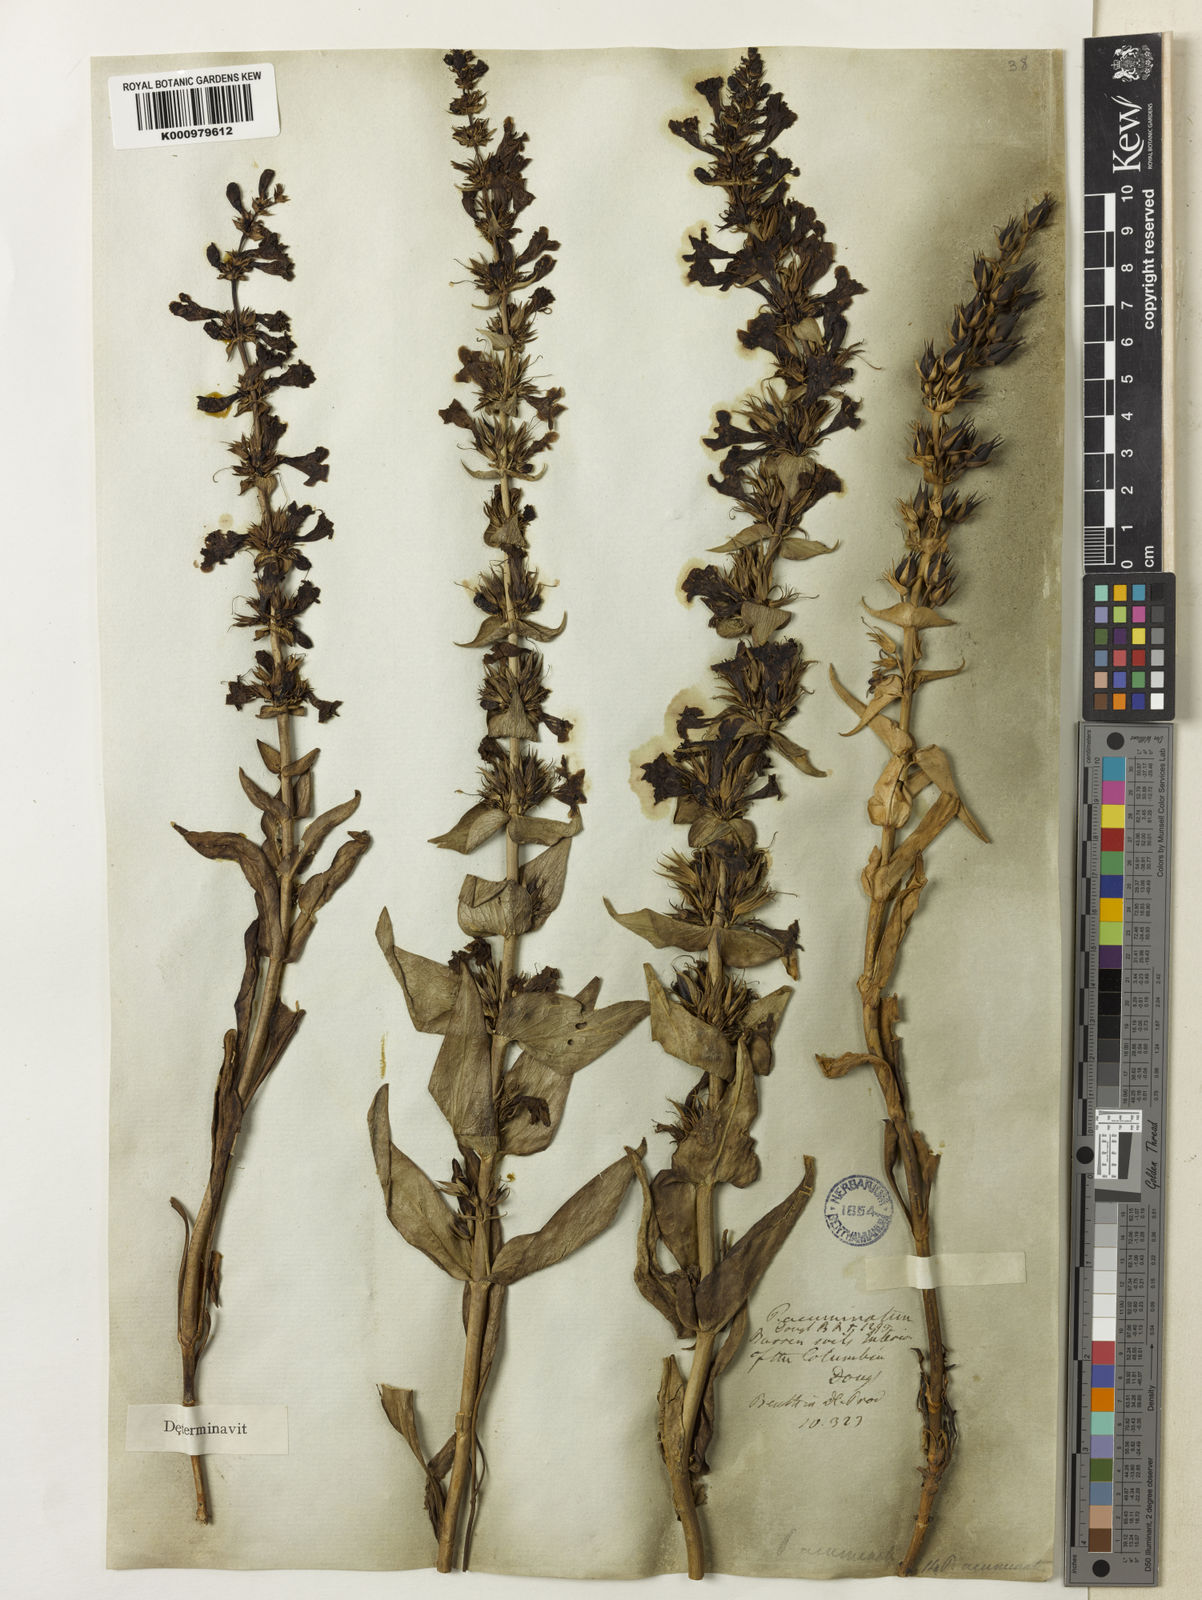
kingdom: Plantae
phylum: Tracheophyta
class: Magnoliopsida
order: Lamiales
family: Plantaginaceae
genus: Penstemon
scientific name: Penstemon acuminatus
